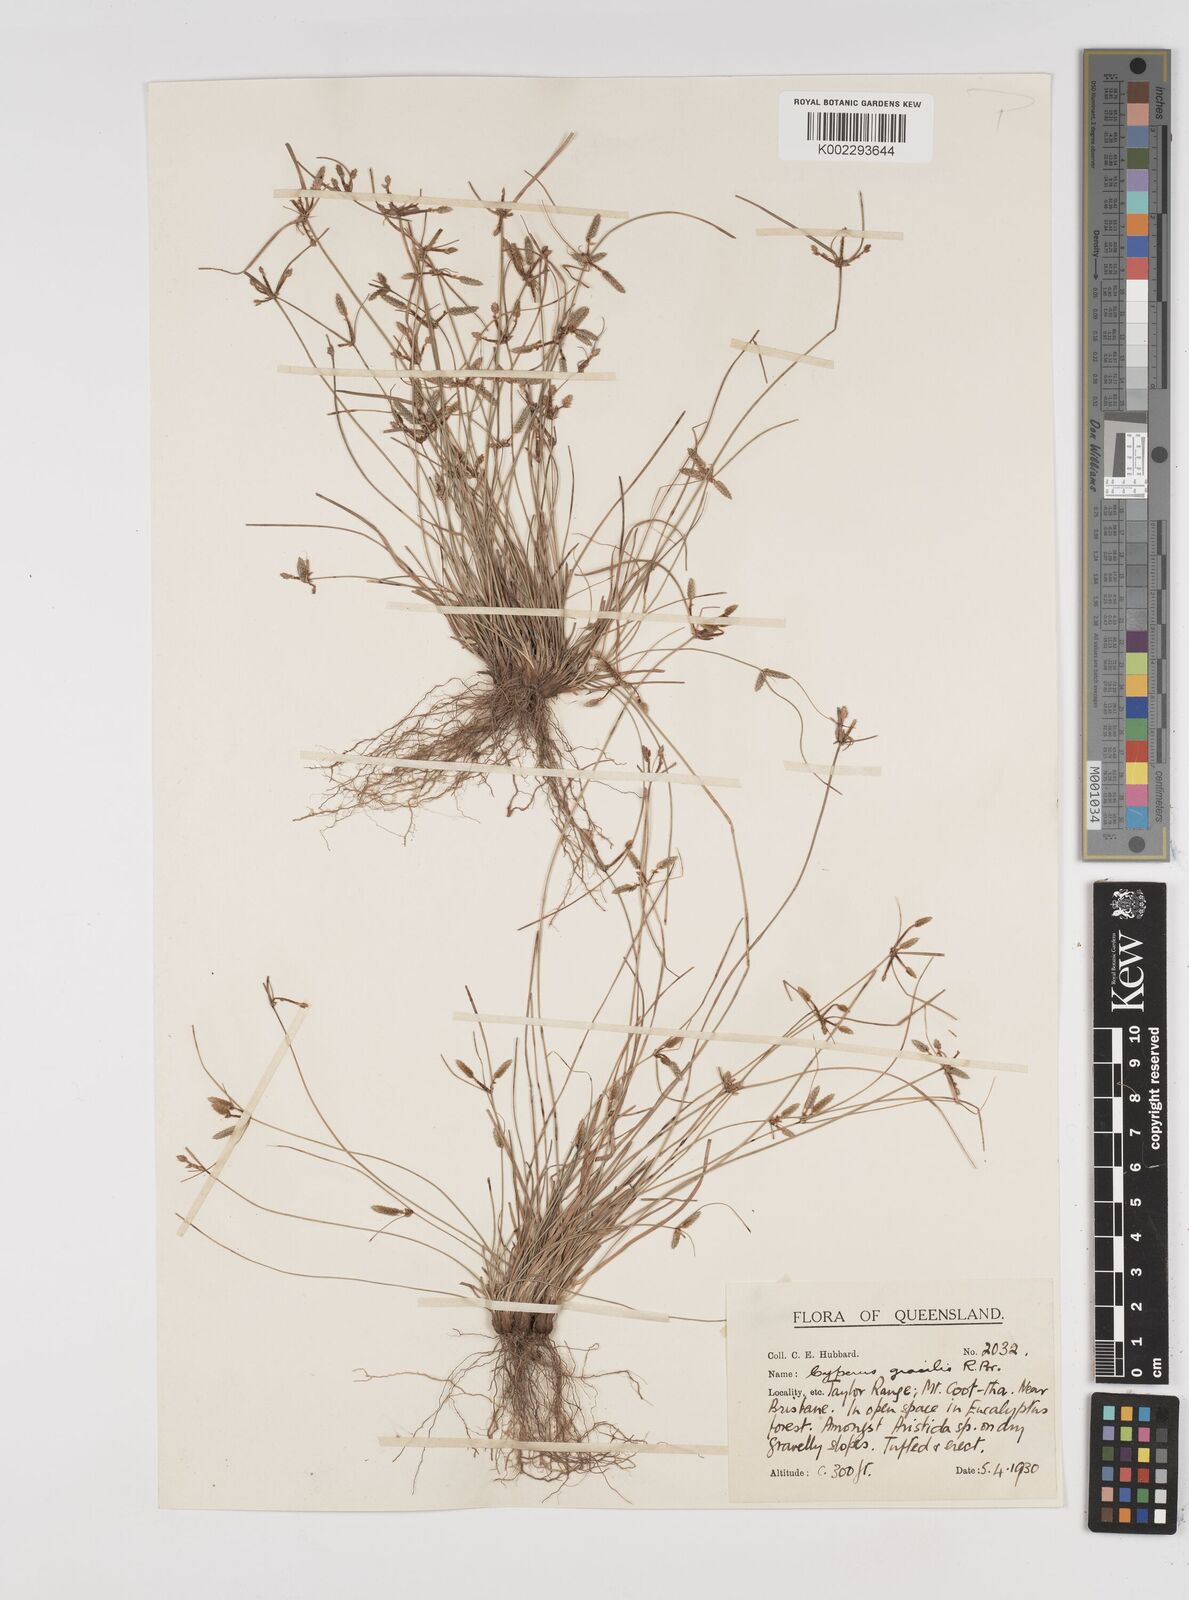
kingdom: Plantae
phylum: Tracheophyta
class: Liliopsida
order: Poales
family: Cyperaceae
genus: Cyperus
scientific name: Cyperus gracilis
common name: Slimjim flatsedge
